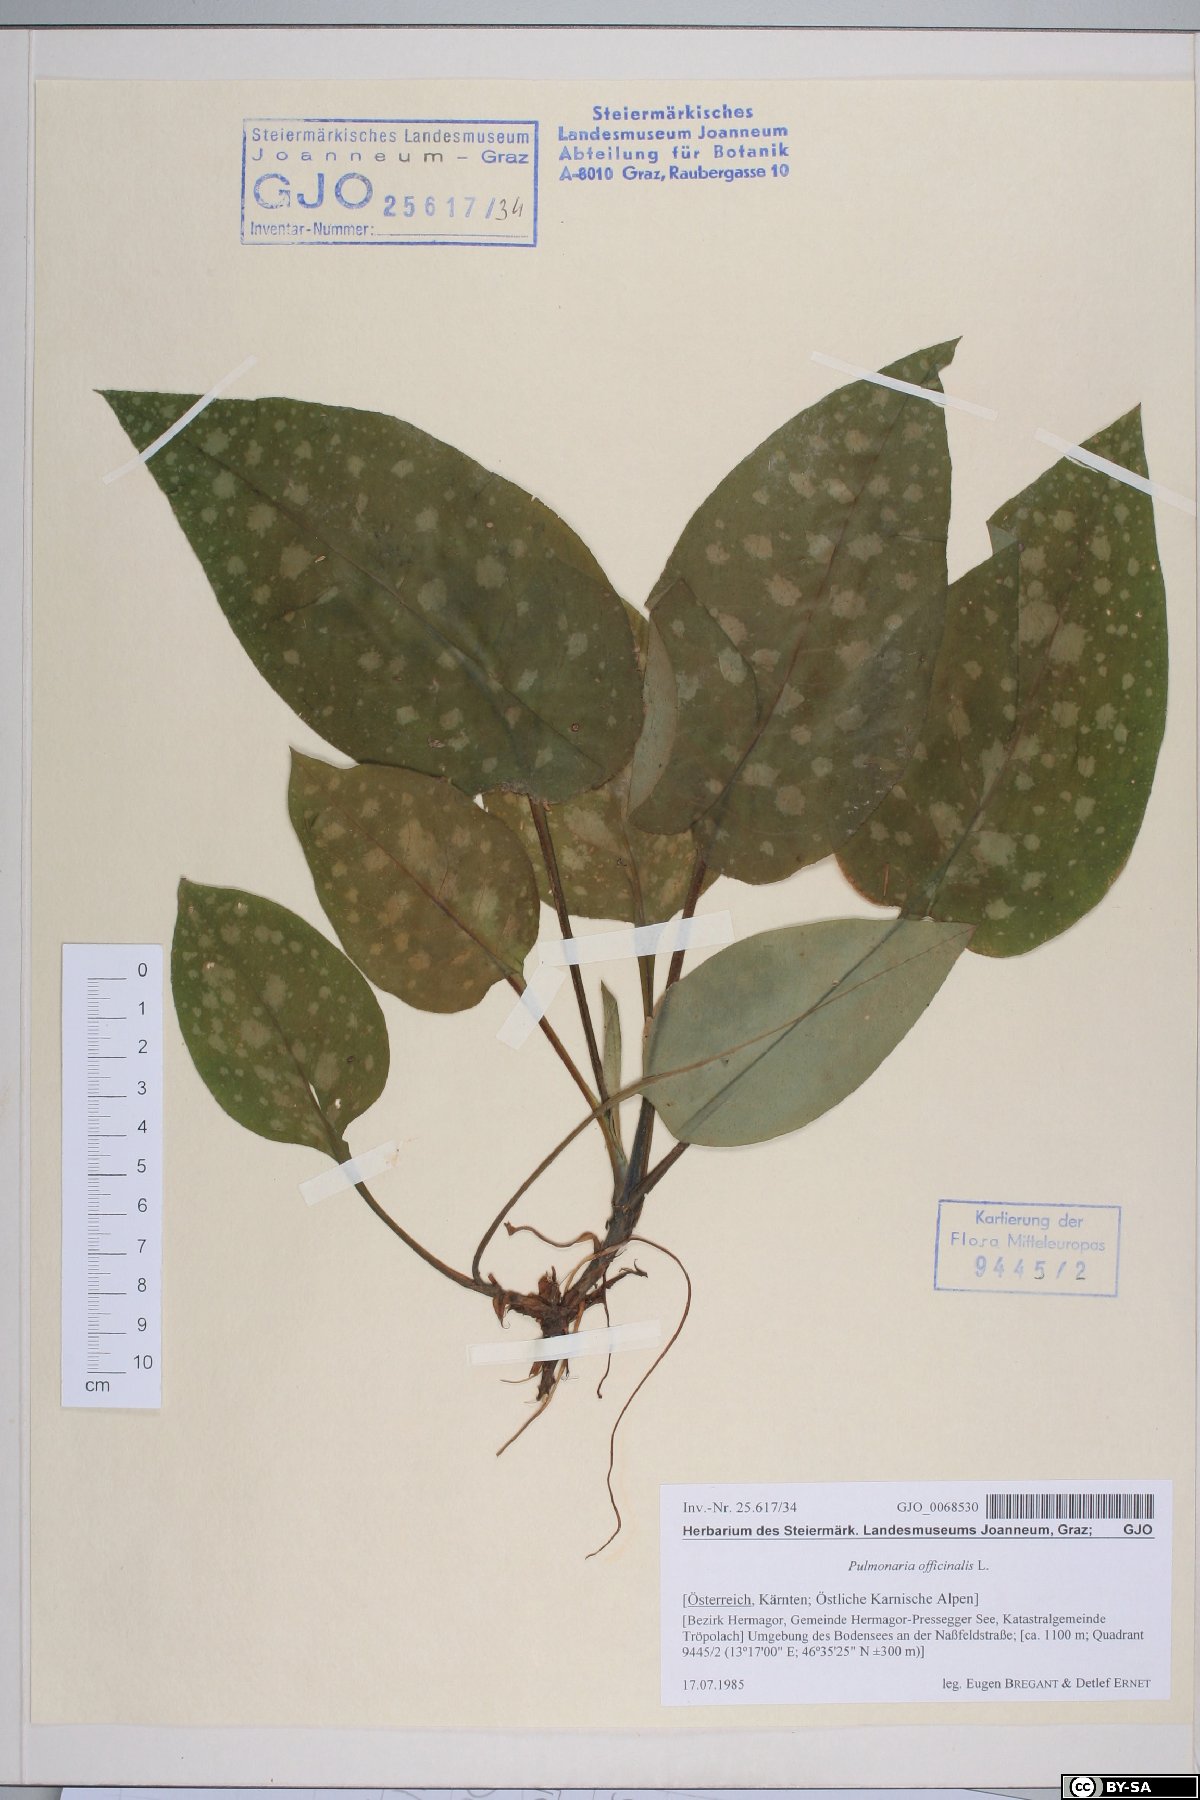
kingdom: Plantae
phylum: Tracheophyta
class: Magnoliopsida
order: Boraginales
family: Boraginaceae
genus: Pulmonaria
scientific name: Pulmonaria officinalis
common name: Lungwort
